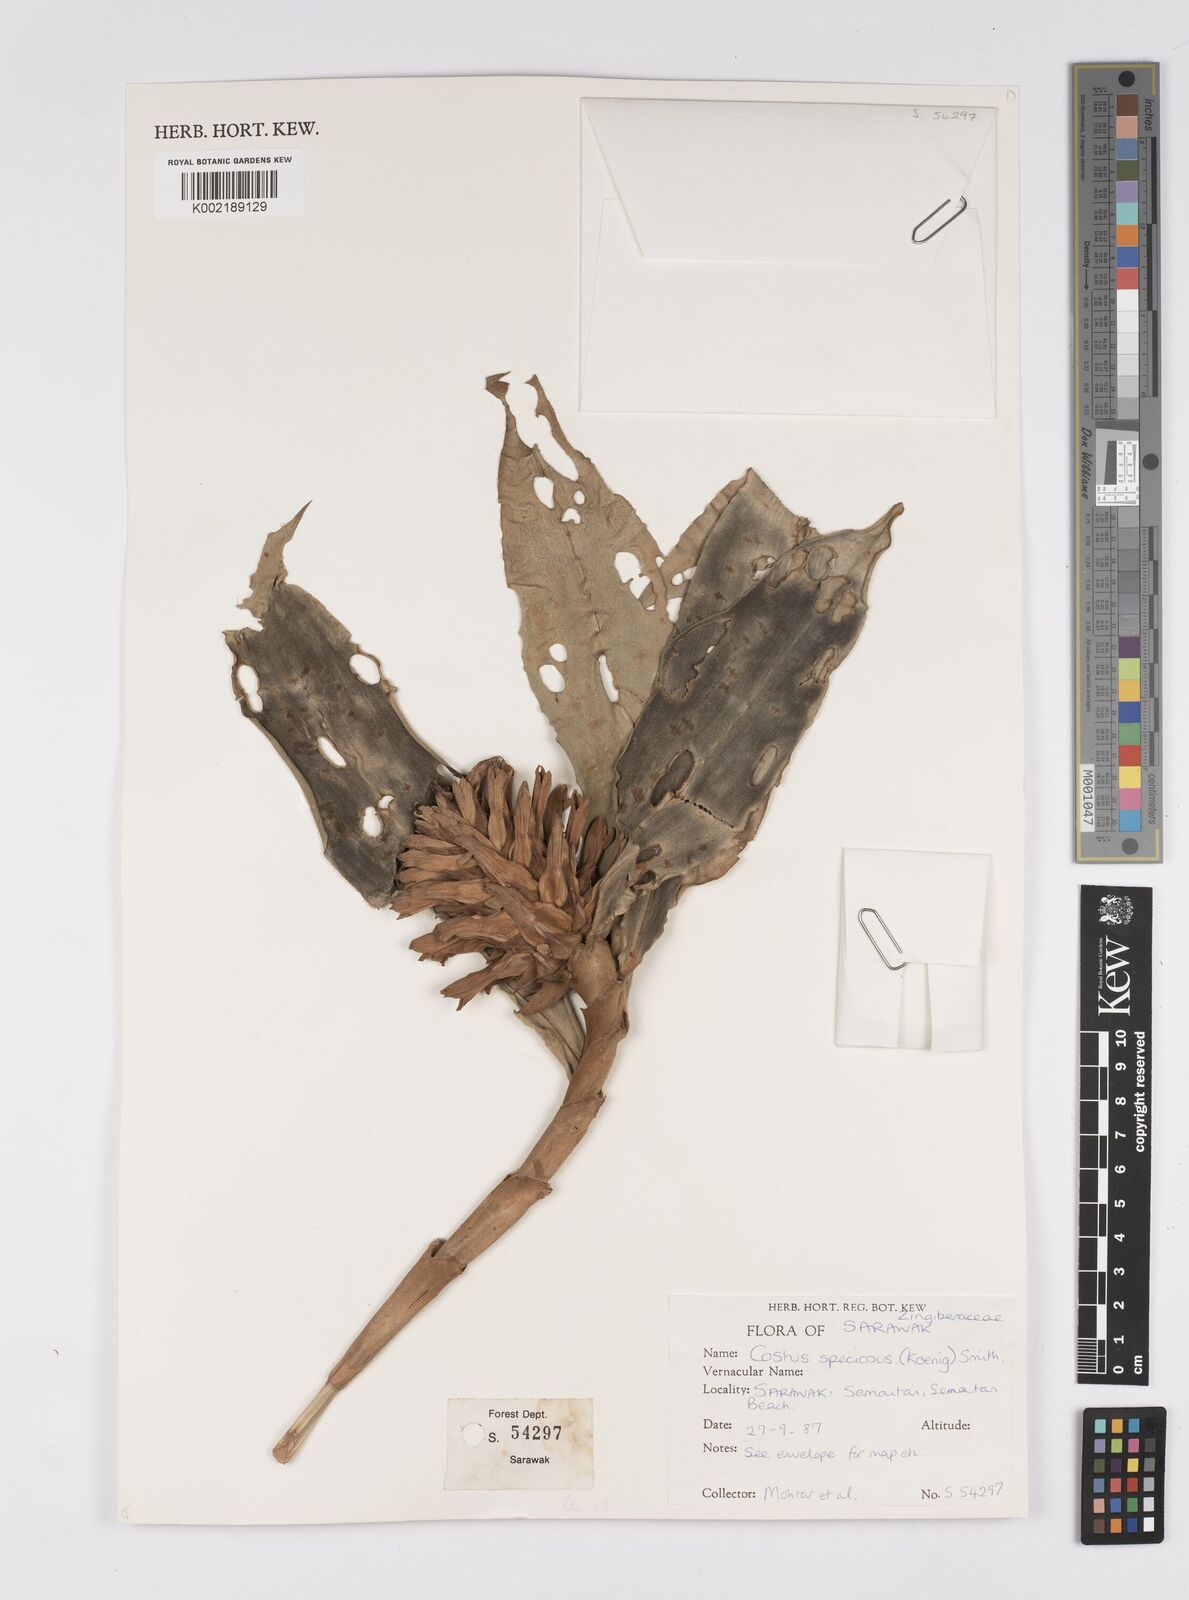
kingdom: Plantae
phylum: Tracheophyta
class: Liliopsida
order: Zingiberales
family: Costaceae
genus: Hellenia
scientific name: Hellenia speciosa
